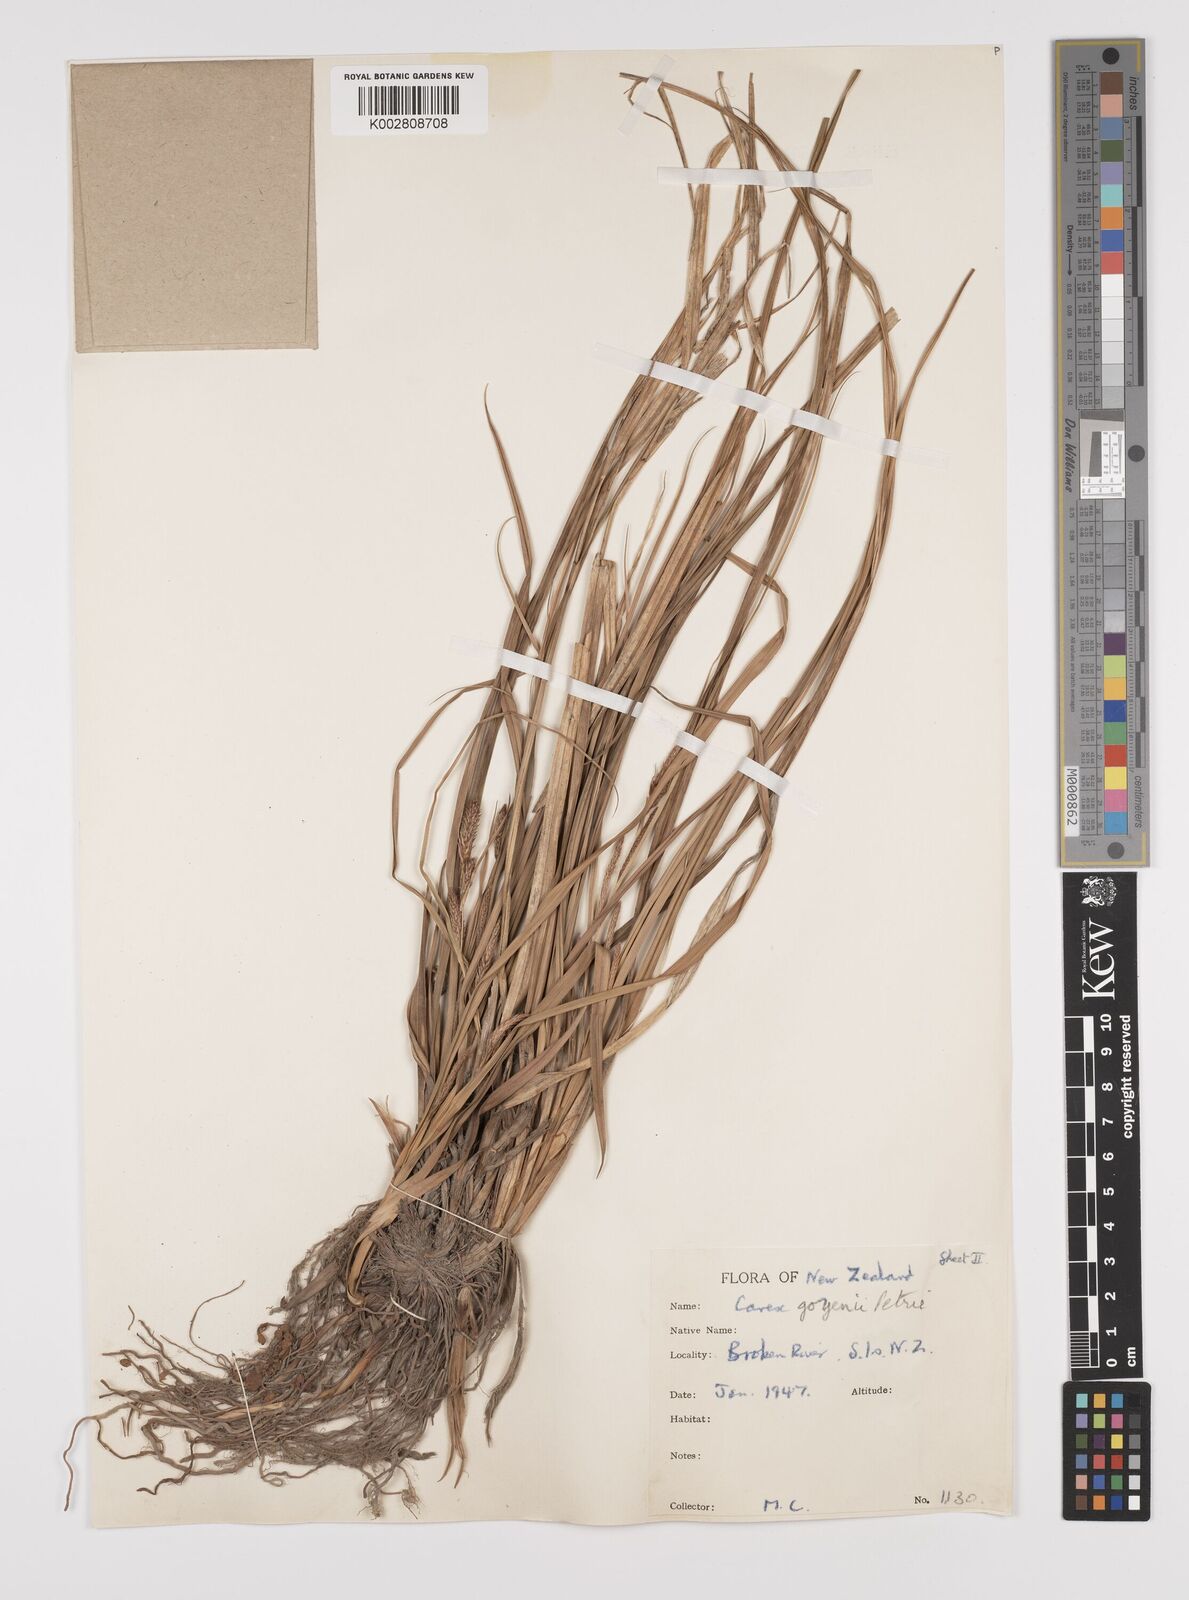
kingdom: Plantae
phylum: Tracheophyta
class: Liliopsida
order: Poales
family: Cyperaceae
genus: Carex
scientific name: Carex raoulii
